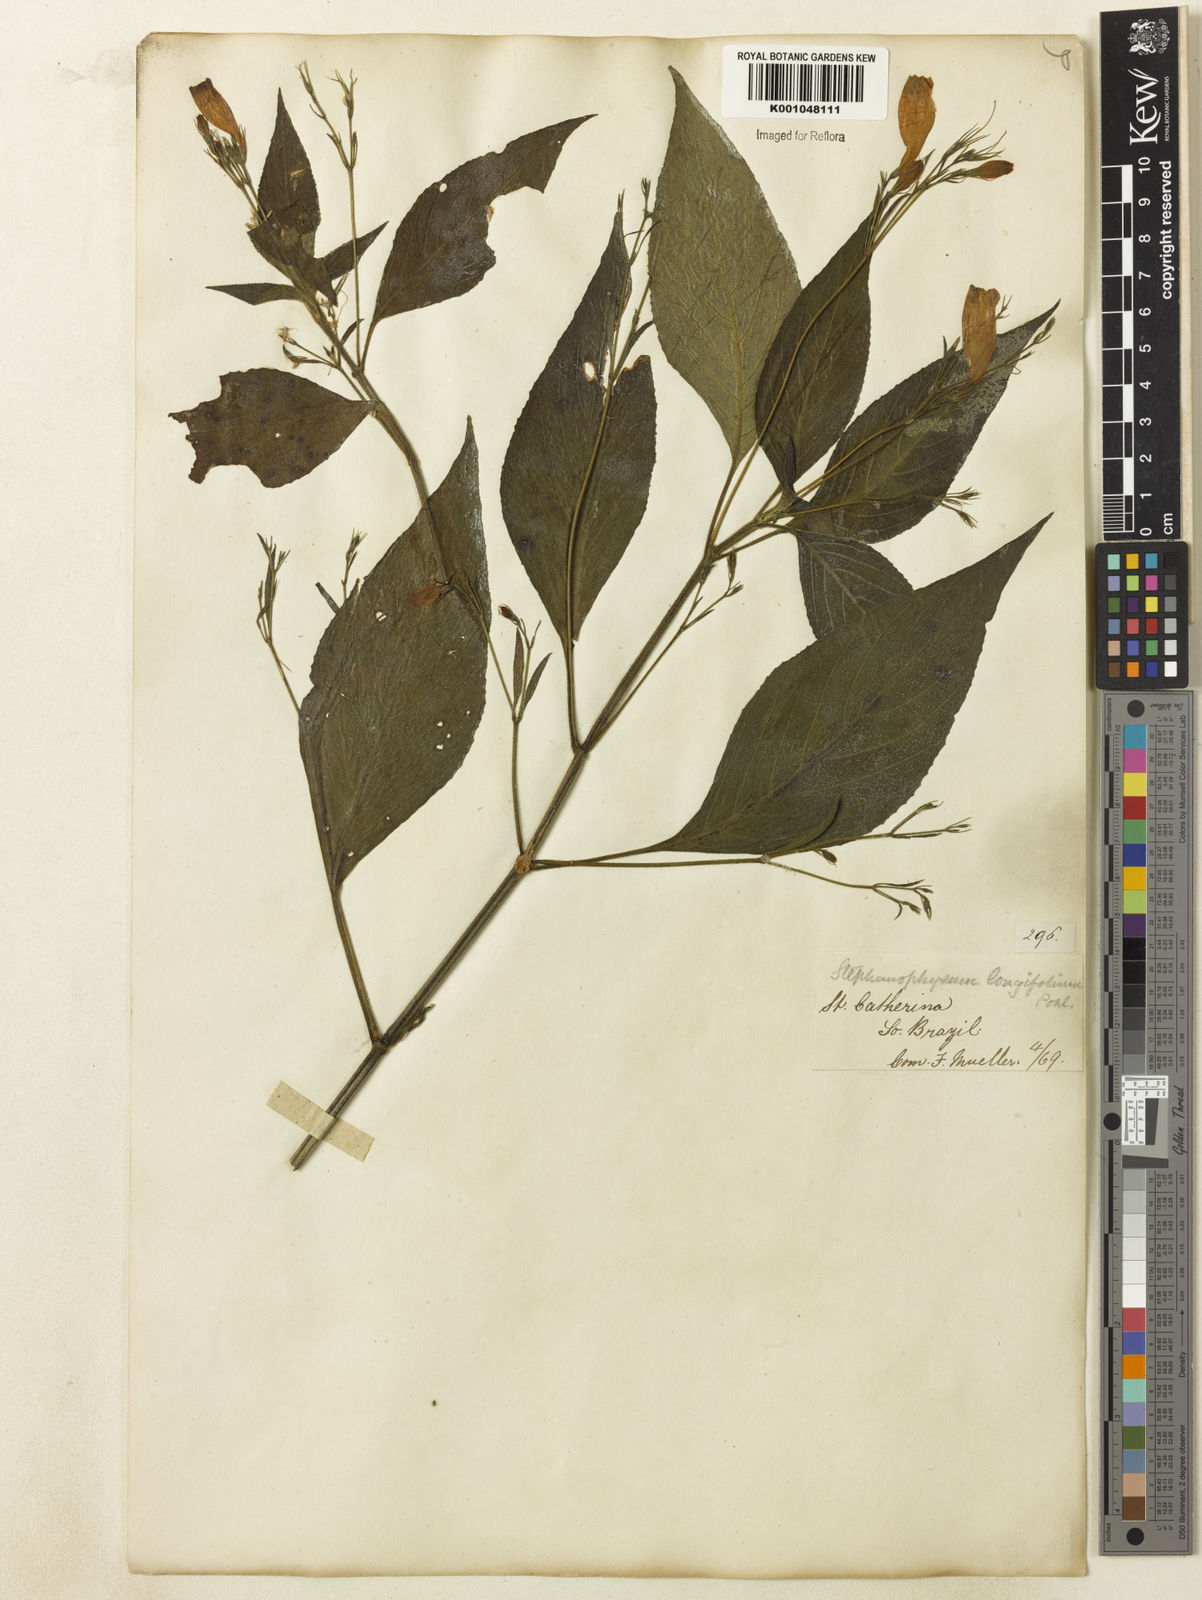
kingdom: Plantae
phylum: Tracheophyta
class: Magnoliopsida
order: Lamiales
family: Acanthaceae
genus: Ruellia
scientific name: Ruellia brevifolia
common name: Tropical wild petunia
